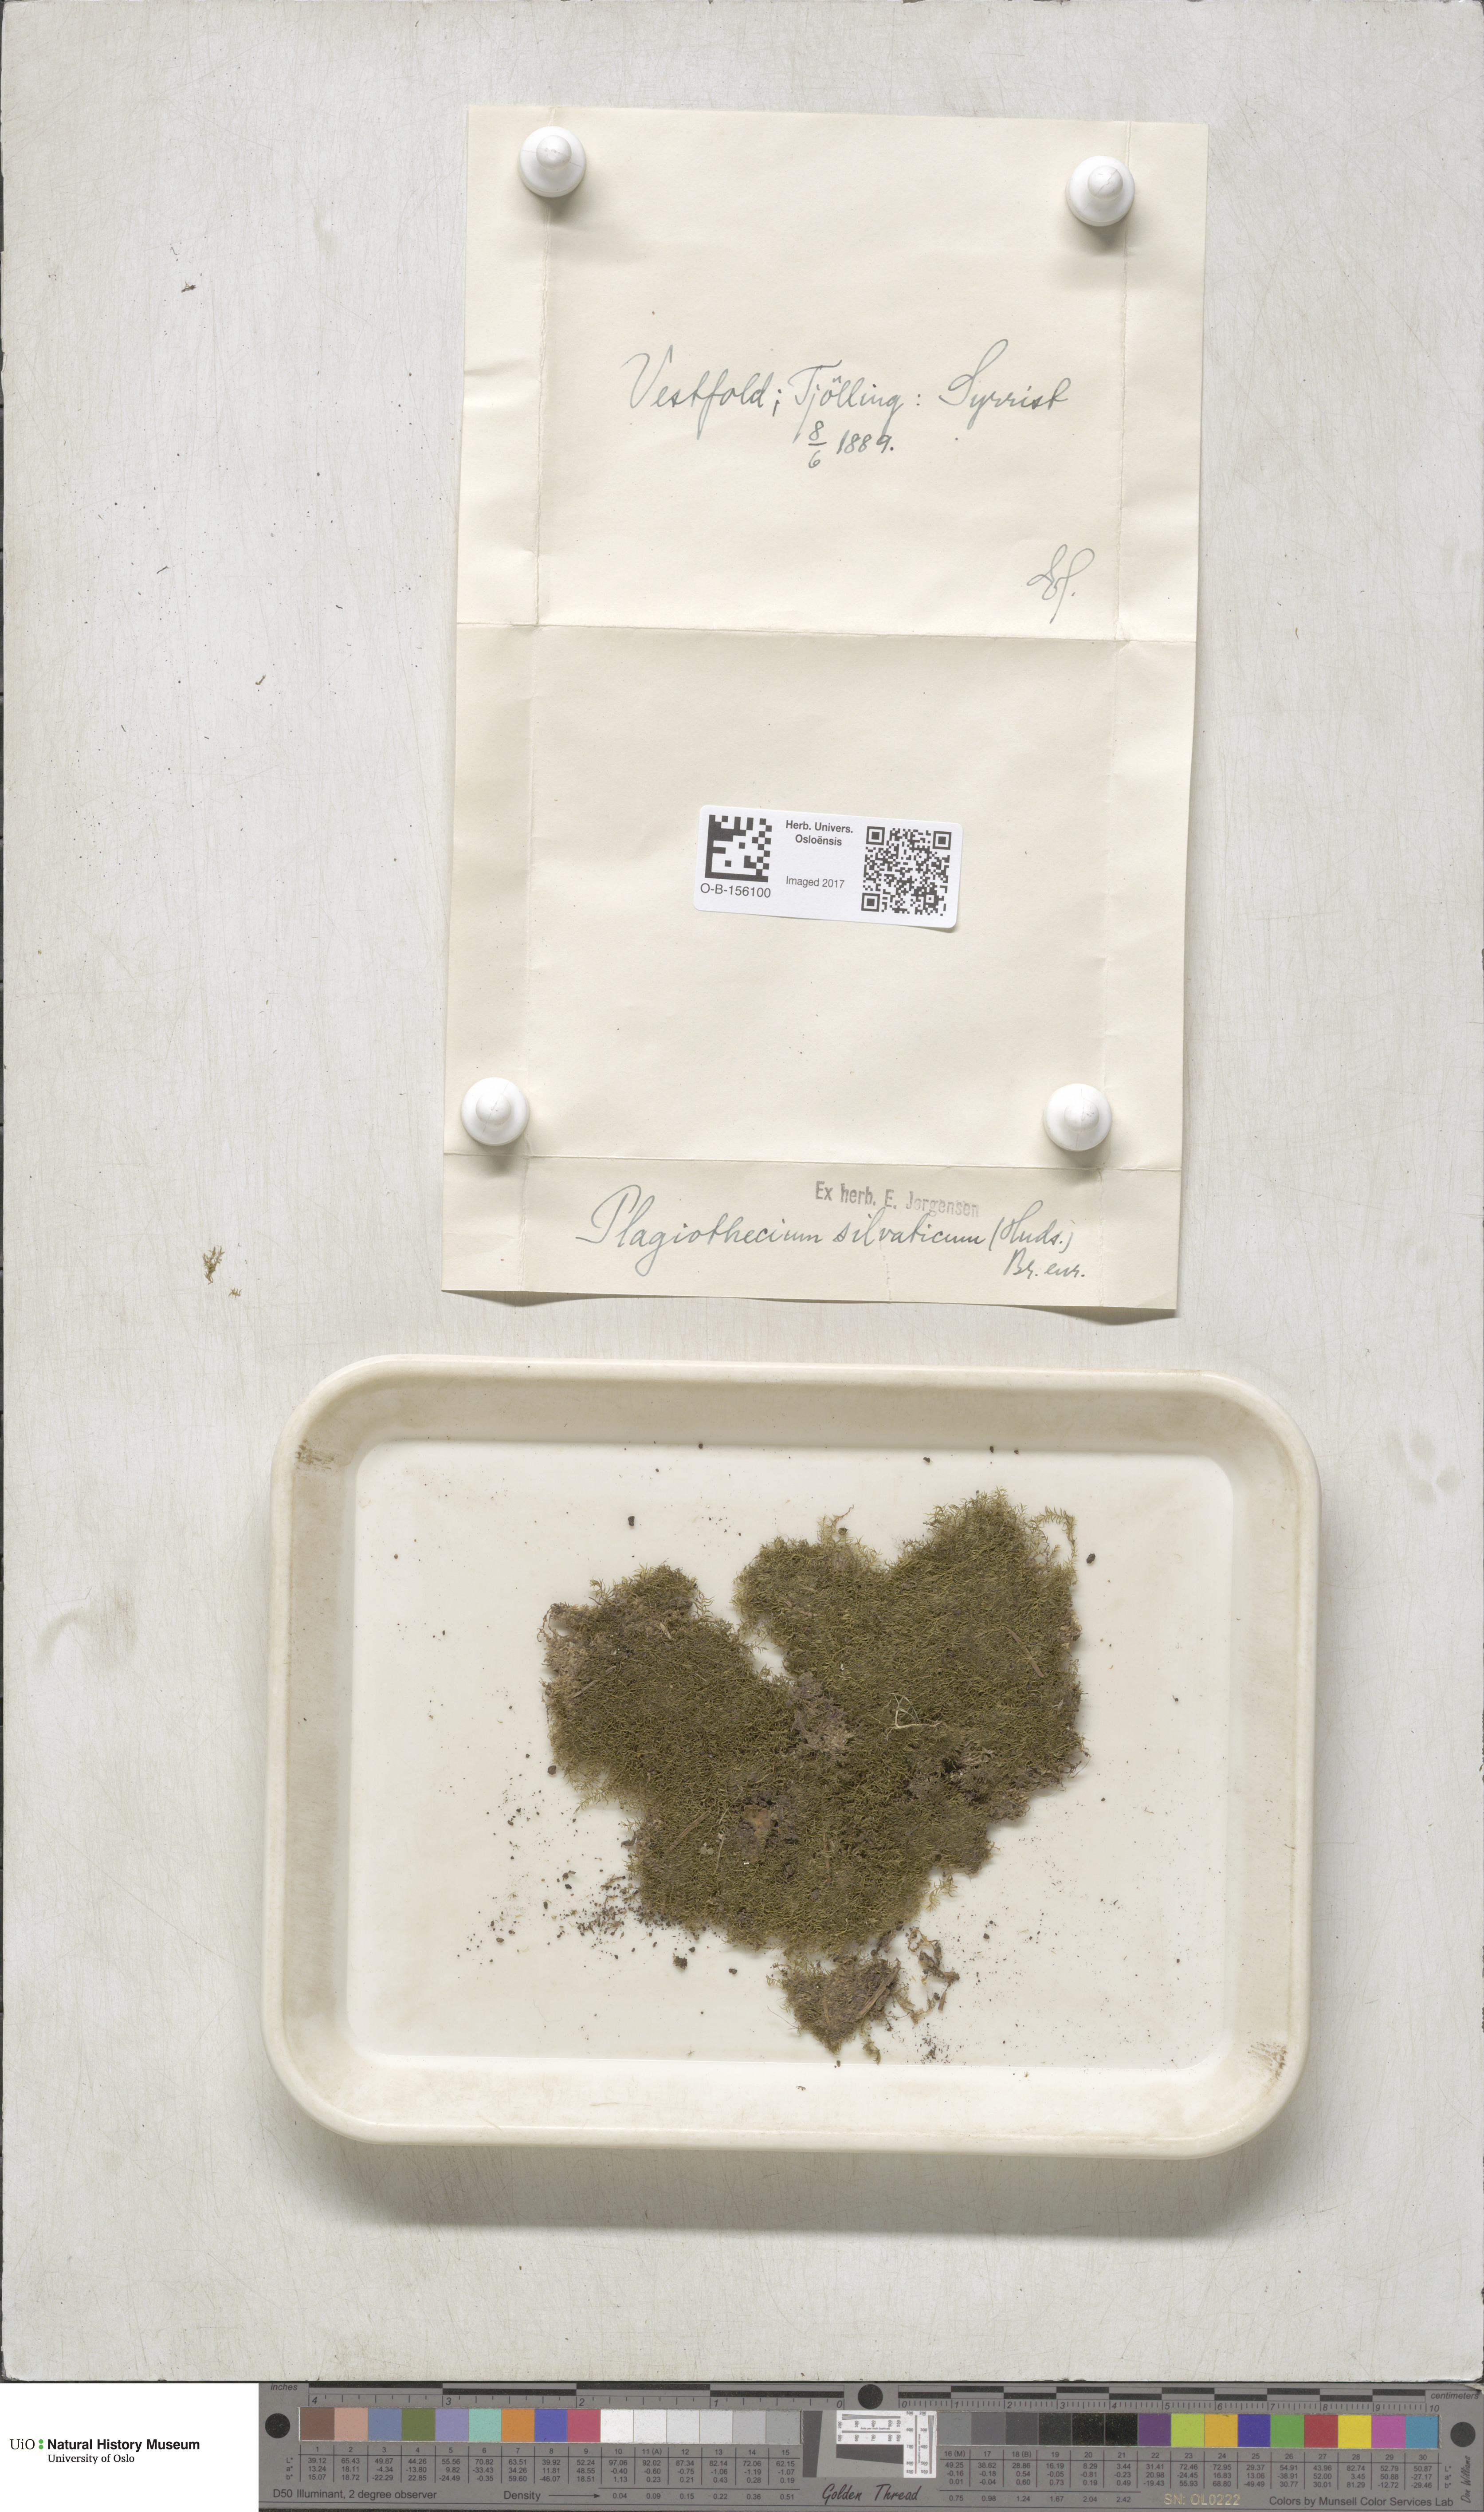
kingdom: Plantae
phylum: Bryophyta
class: Bryopsida
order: Hypnales
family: Plagiotheciaceae
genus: Plagiothecium
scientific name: Plagiothecium nemorale
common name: Woodsy silk-moss
